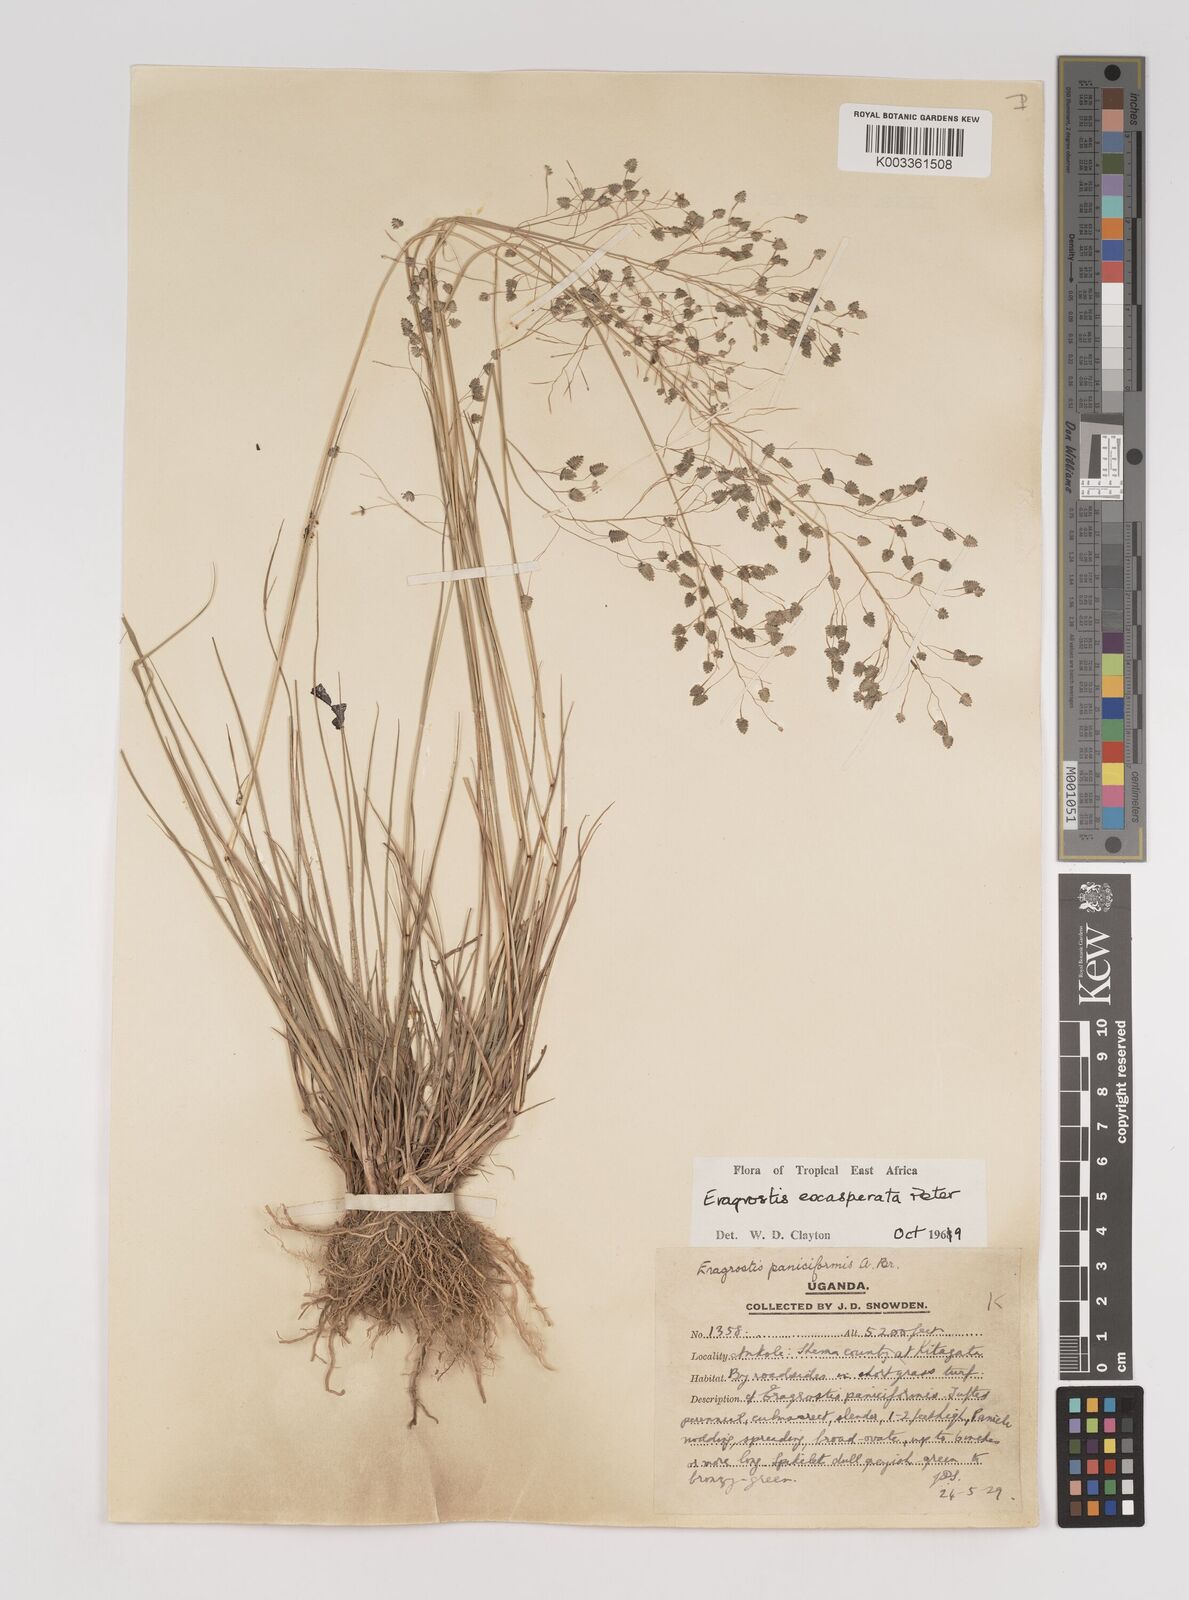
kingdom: Plantae
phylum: Tracheophyta
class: Liliopsida
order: Poales
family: Poaceae
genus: Eragrostis
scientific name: Eragrostis exasperata
